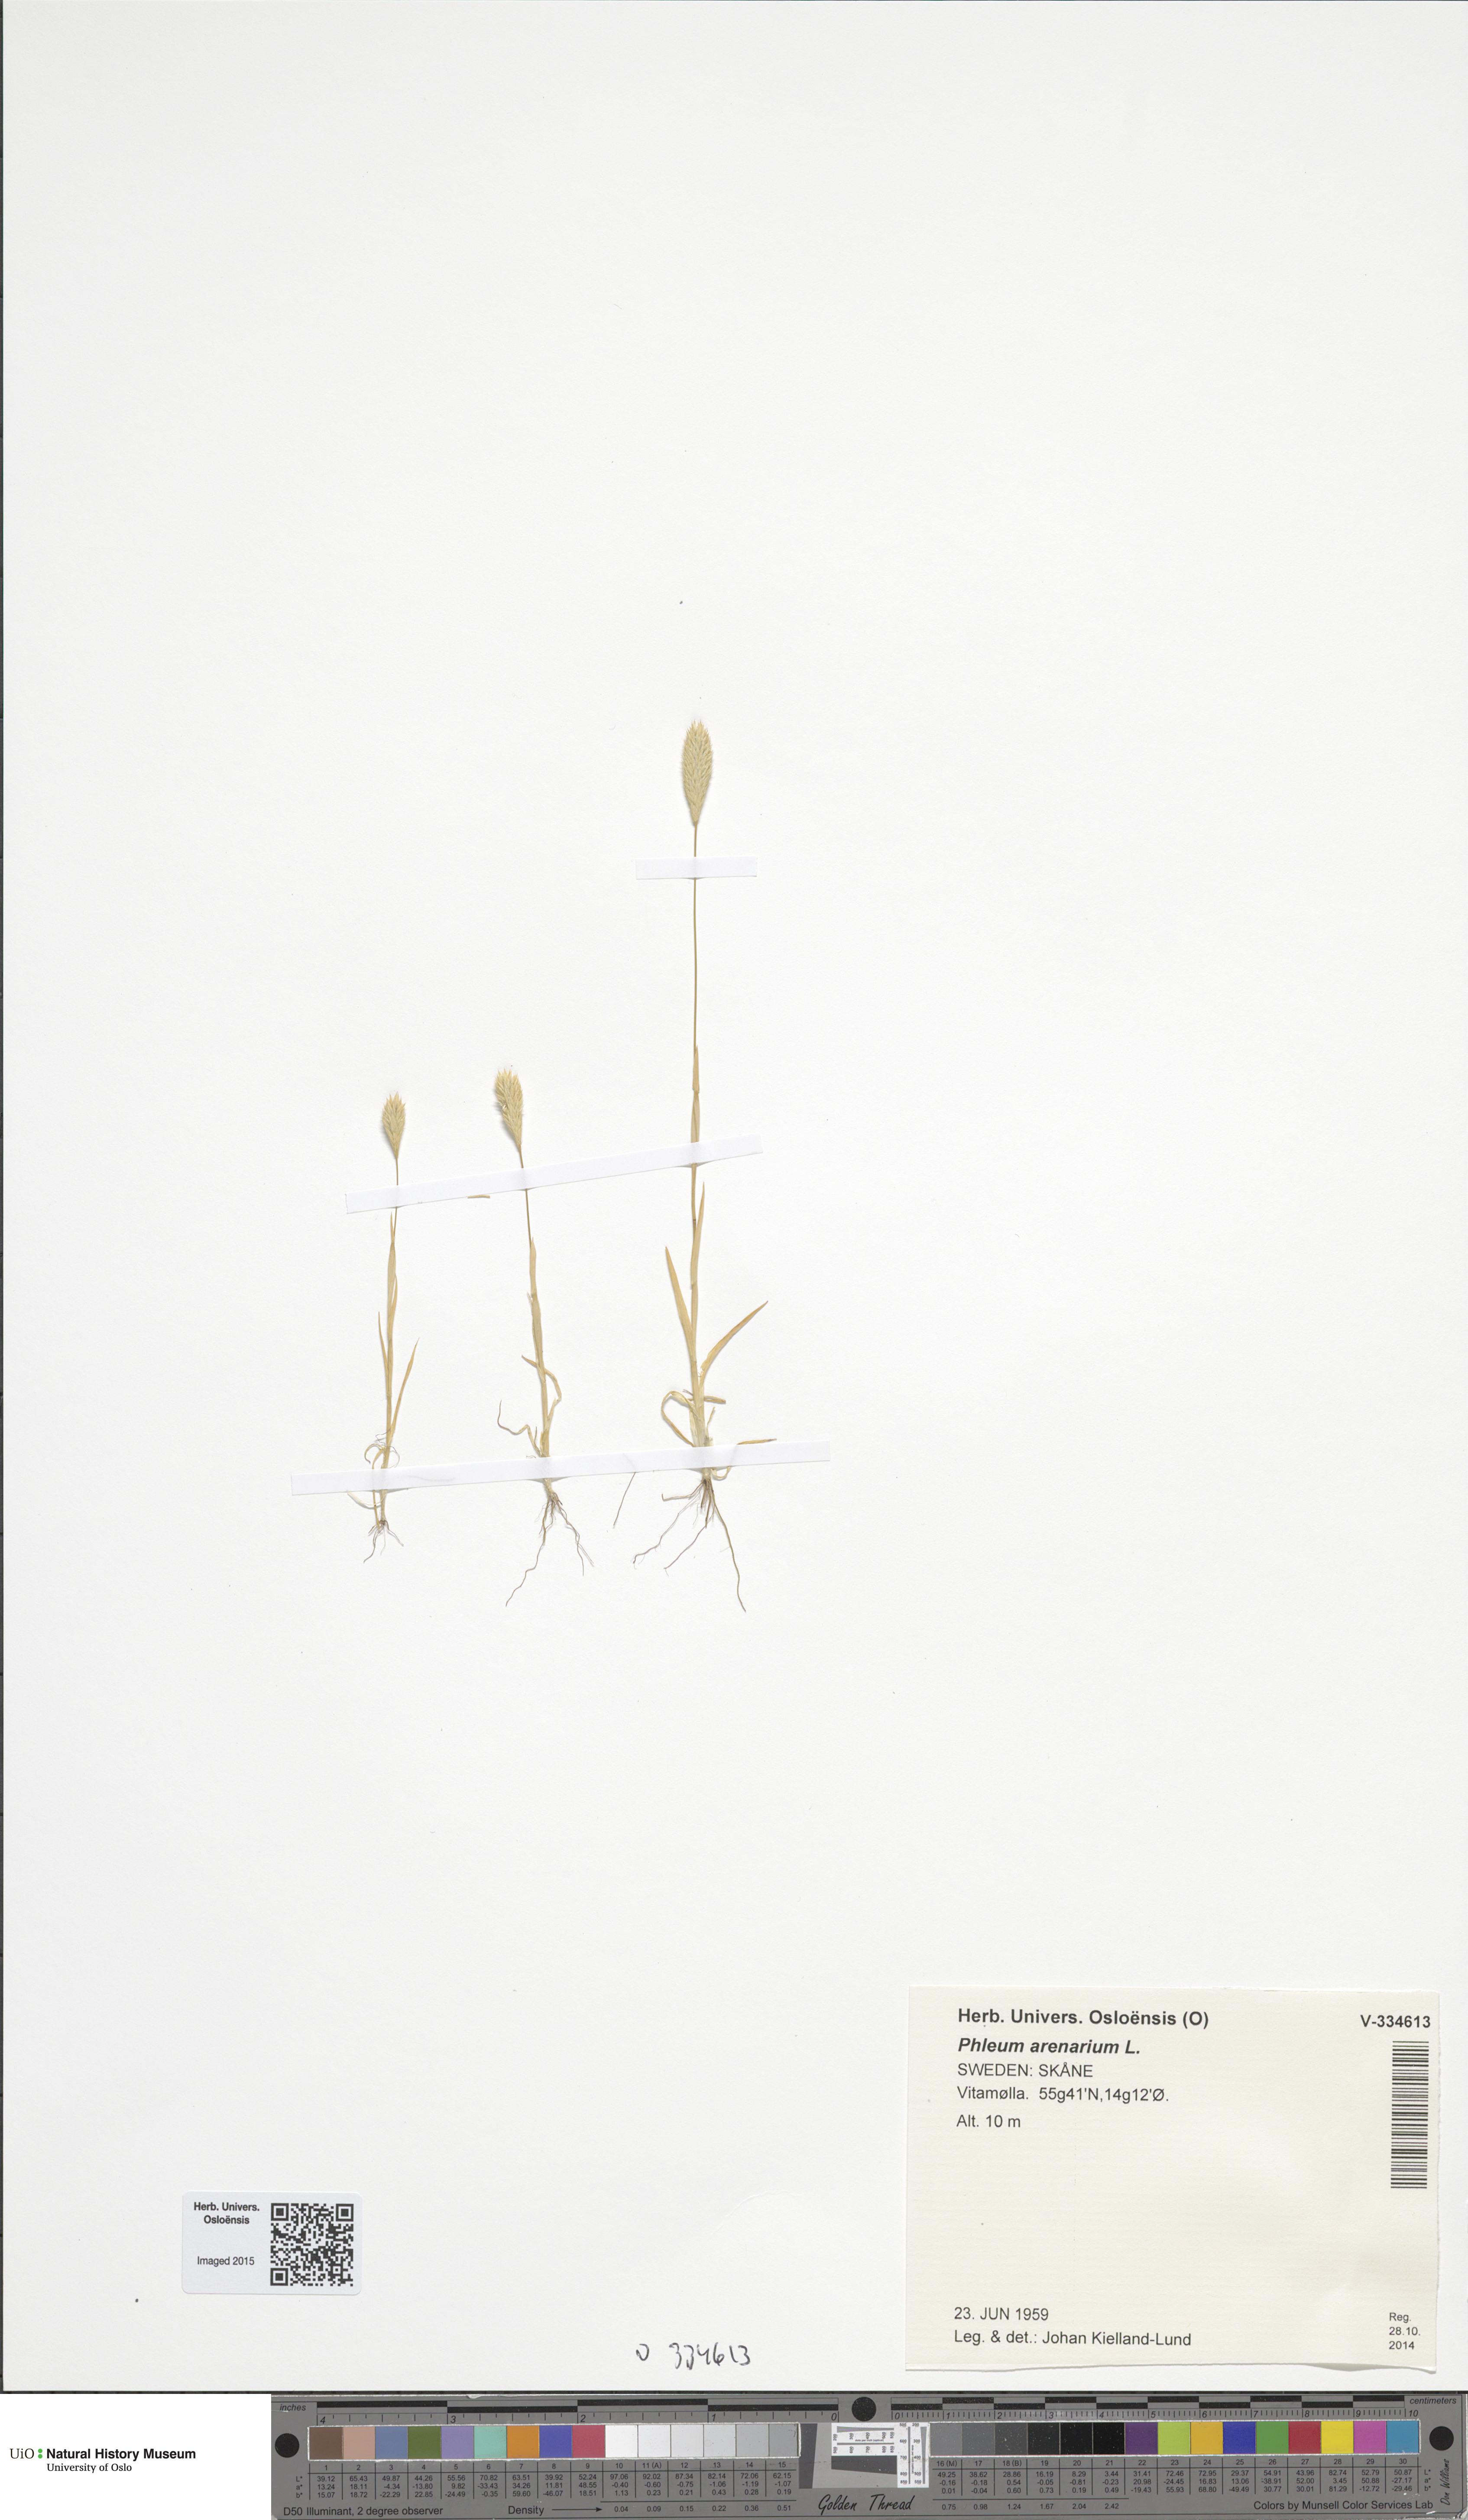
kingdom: Plantae
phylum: Tracheophyta
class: Liliopsida
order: Poales
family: Poaceae
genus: Phleum
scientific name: Phleum arenarium
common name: Sand cat's-tail
